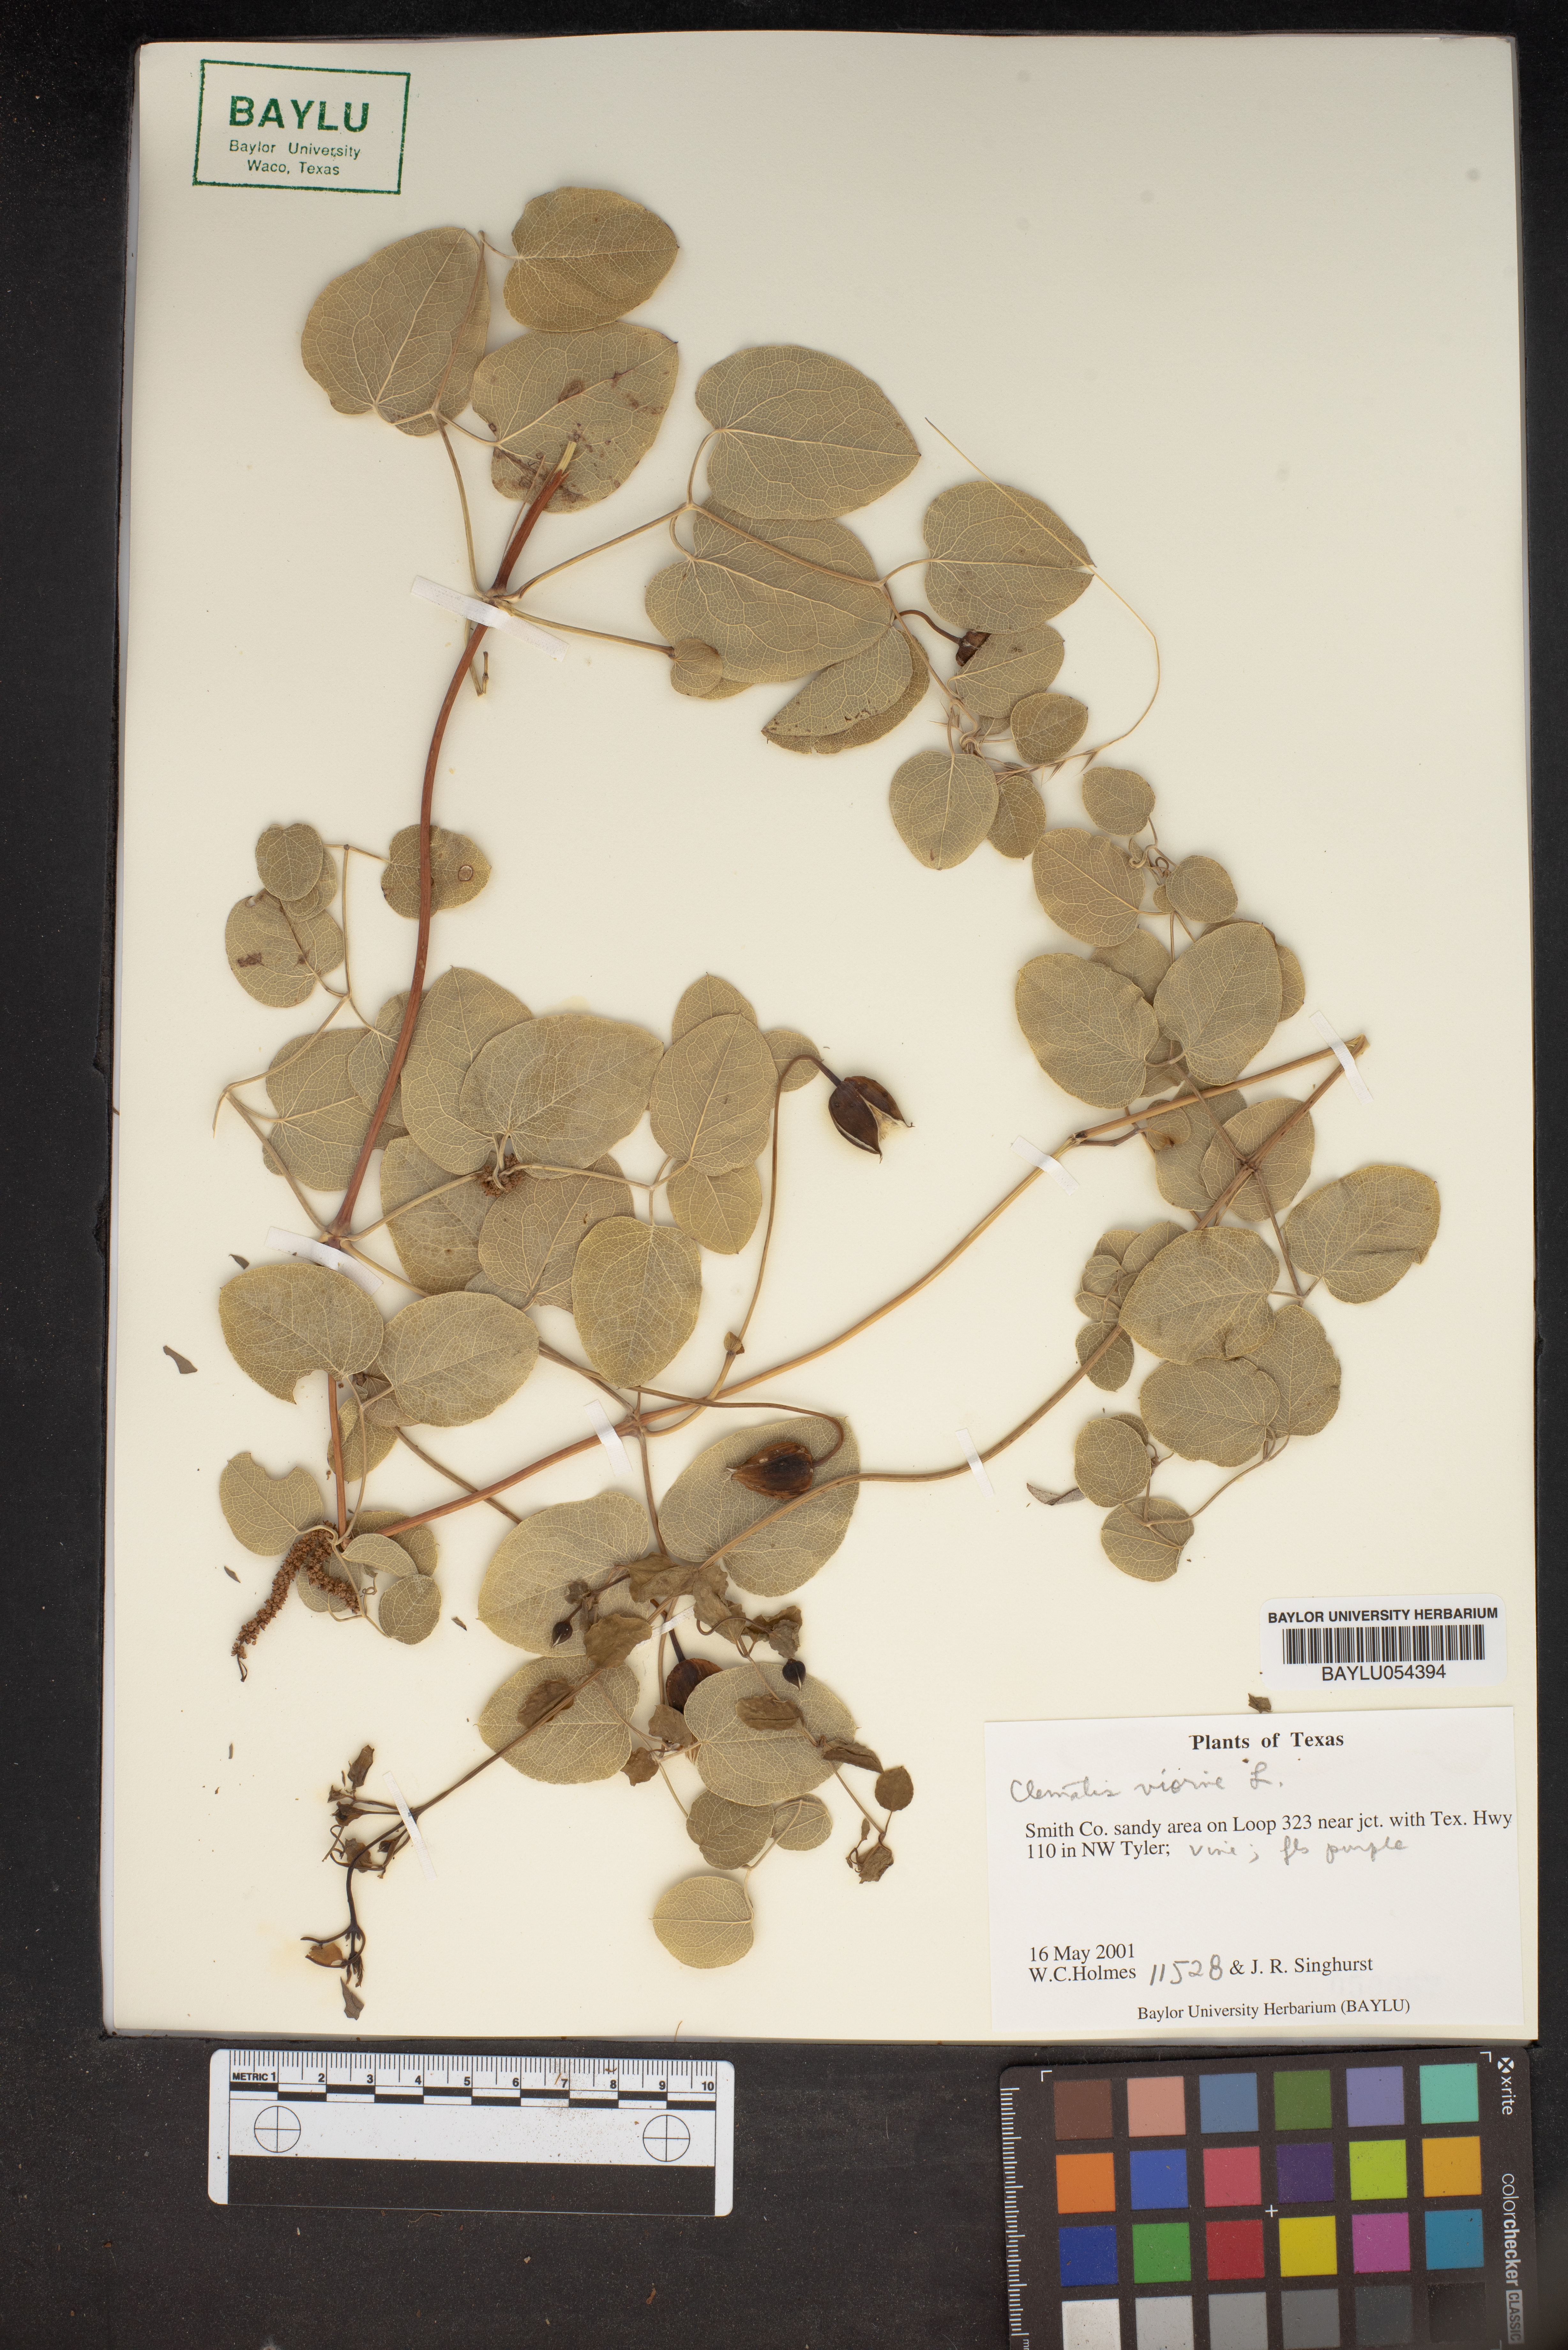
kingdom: Plantae
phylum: Tracheophyta
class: Magnoliopsida
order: Ranunculales
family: Ranunculaceae
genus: Clematis
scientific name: Clematis viorna
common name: Leather-flower
